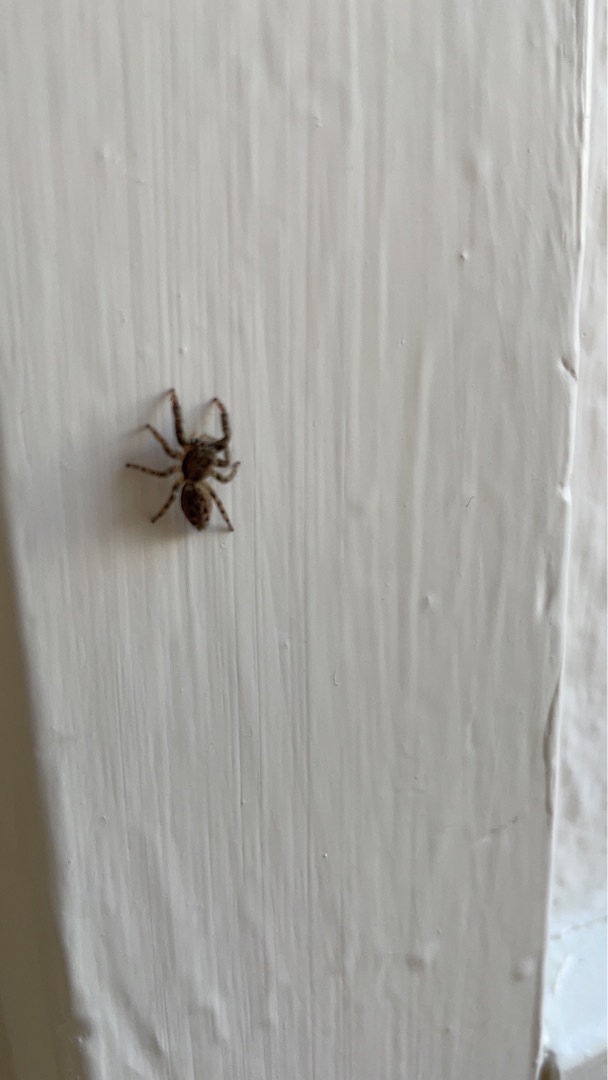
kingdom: Animalia
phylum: Arthropoda
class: Arachnida
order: Araneae
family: Salticidae
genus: Marpissa
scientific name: Marpissa muscosa
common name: Stor springedderkop
